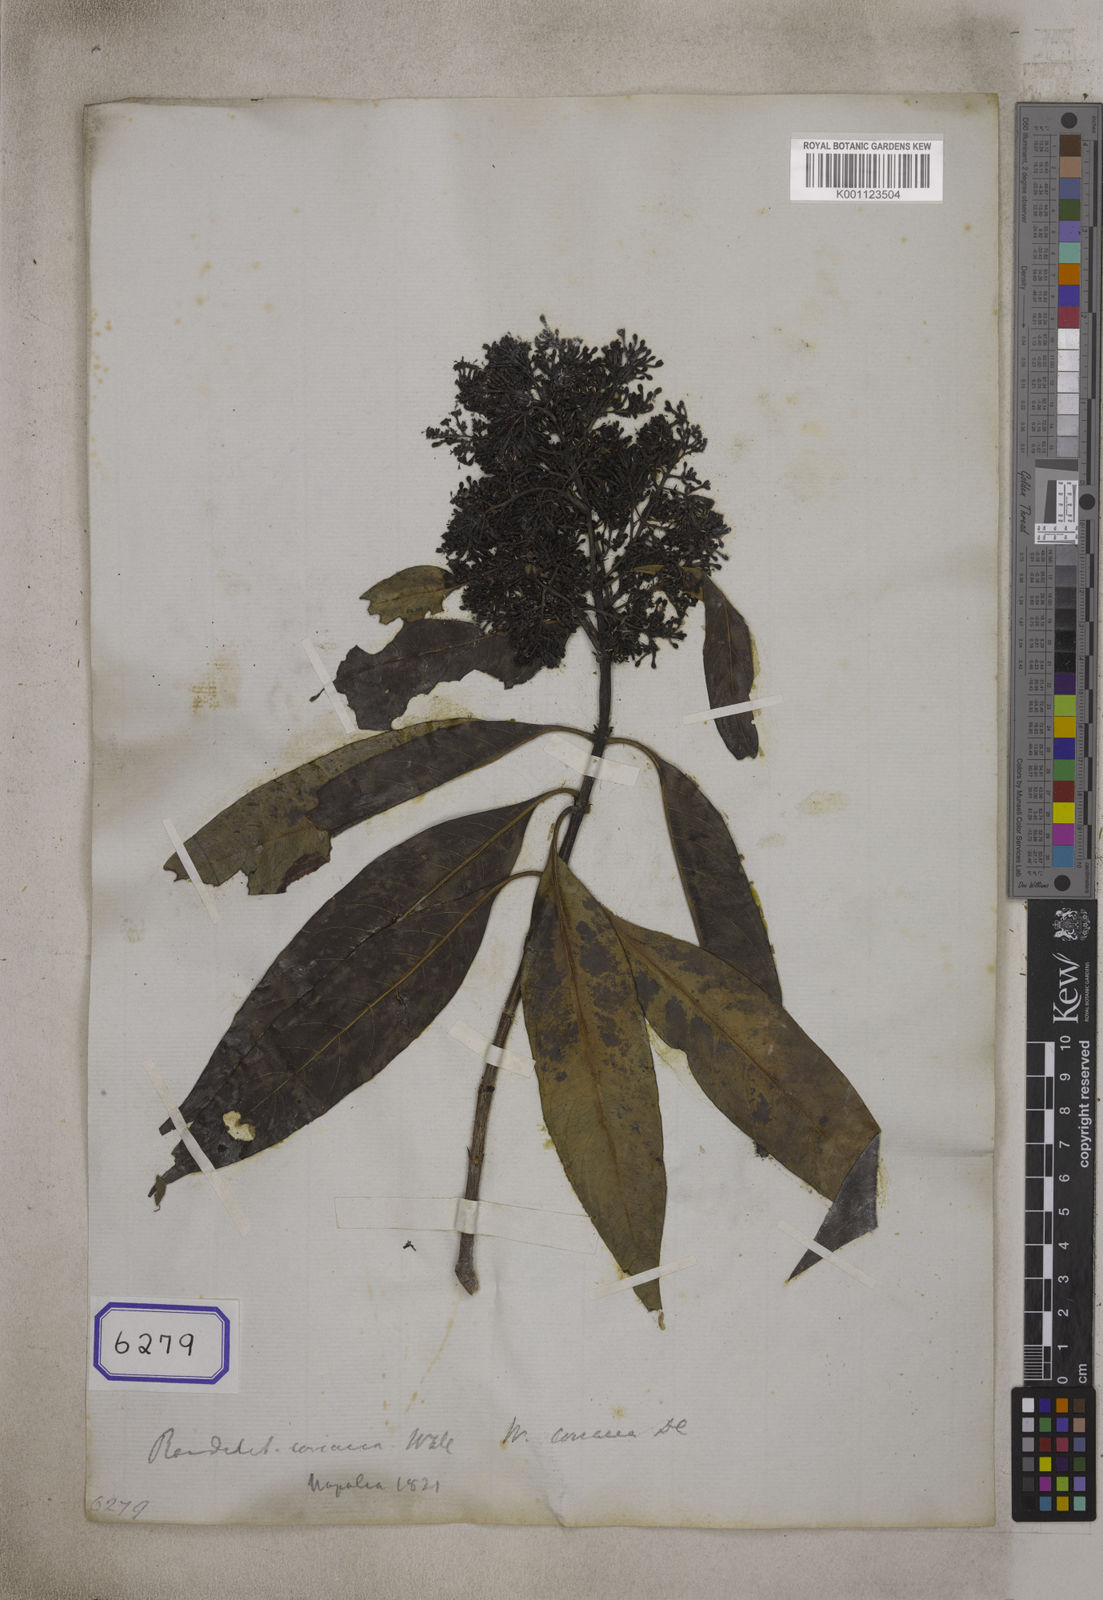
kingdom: Plantae
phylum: Tracheophyta
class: Magnoliopsida
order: Gentianales
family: Rubiaceae
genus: Wendlandia
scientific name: Wendlandia coriacea
